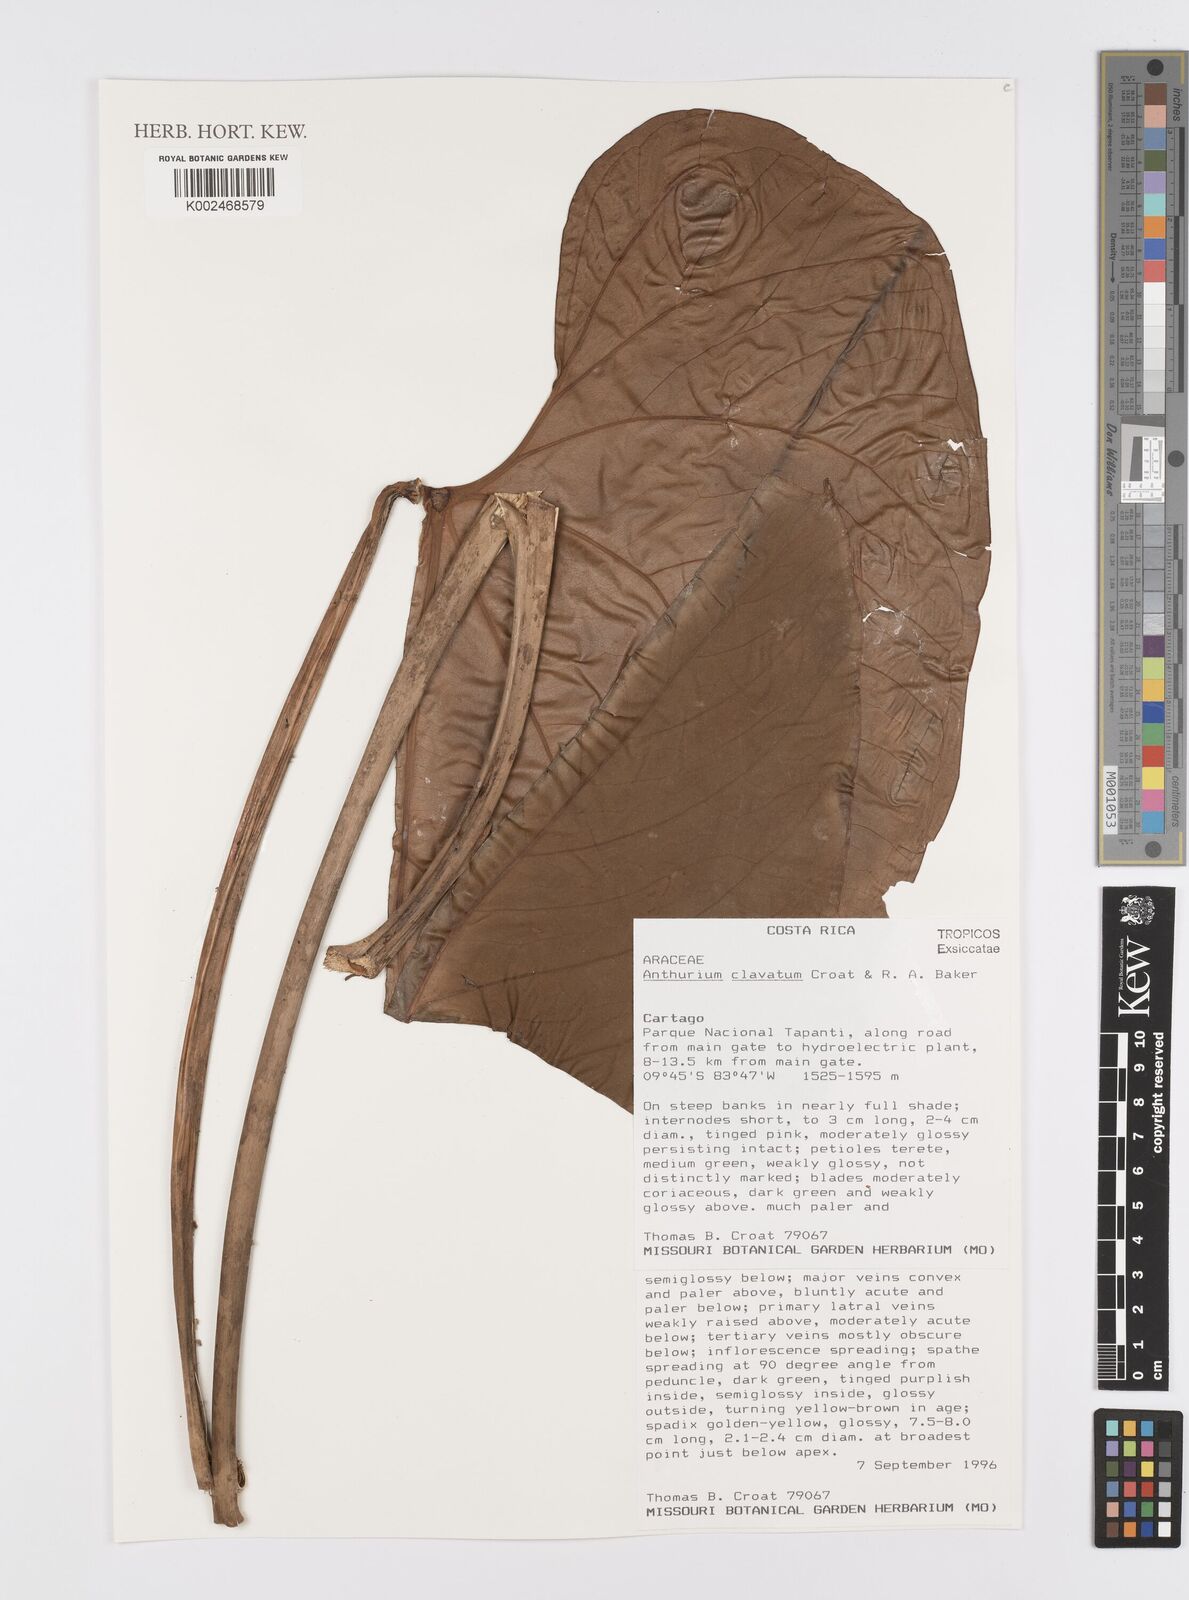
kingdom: Plantae
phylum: Tracheophyta
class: Liliopsida
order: Alismatales
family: Araceae
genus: Anthurium
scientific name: Anthurium clavatum
